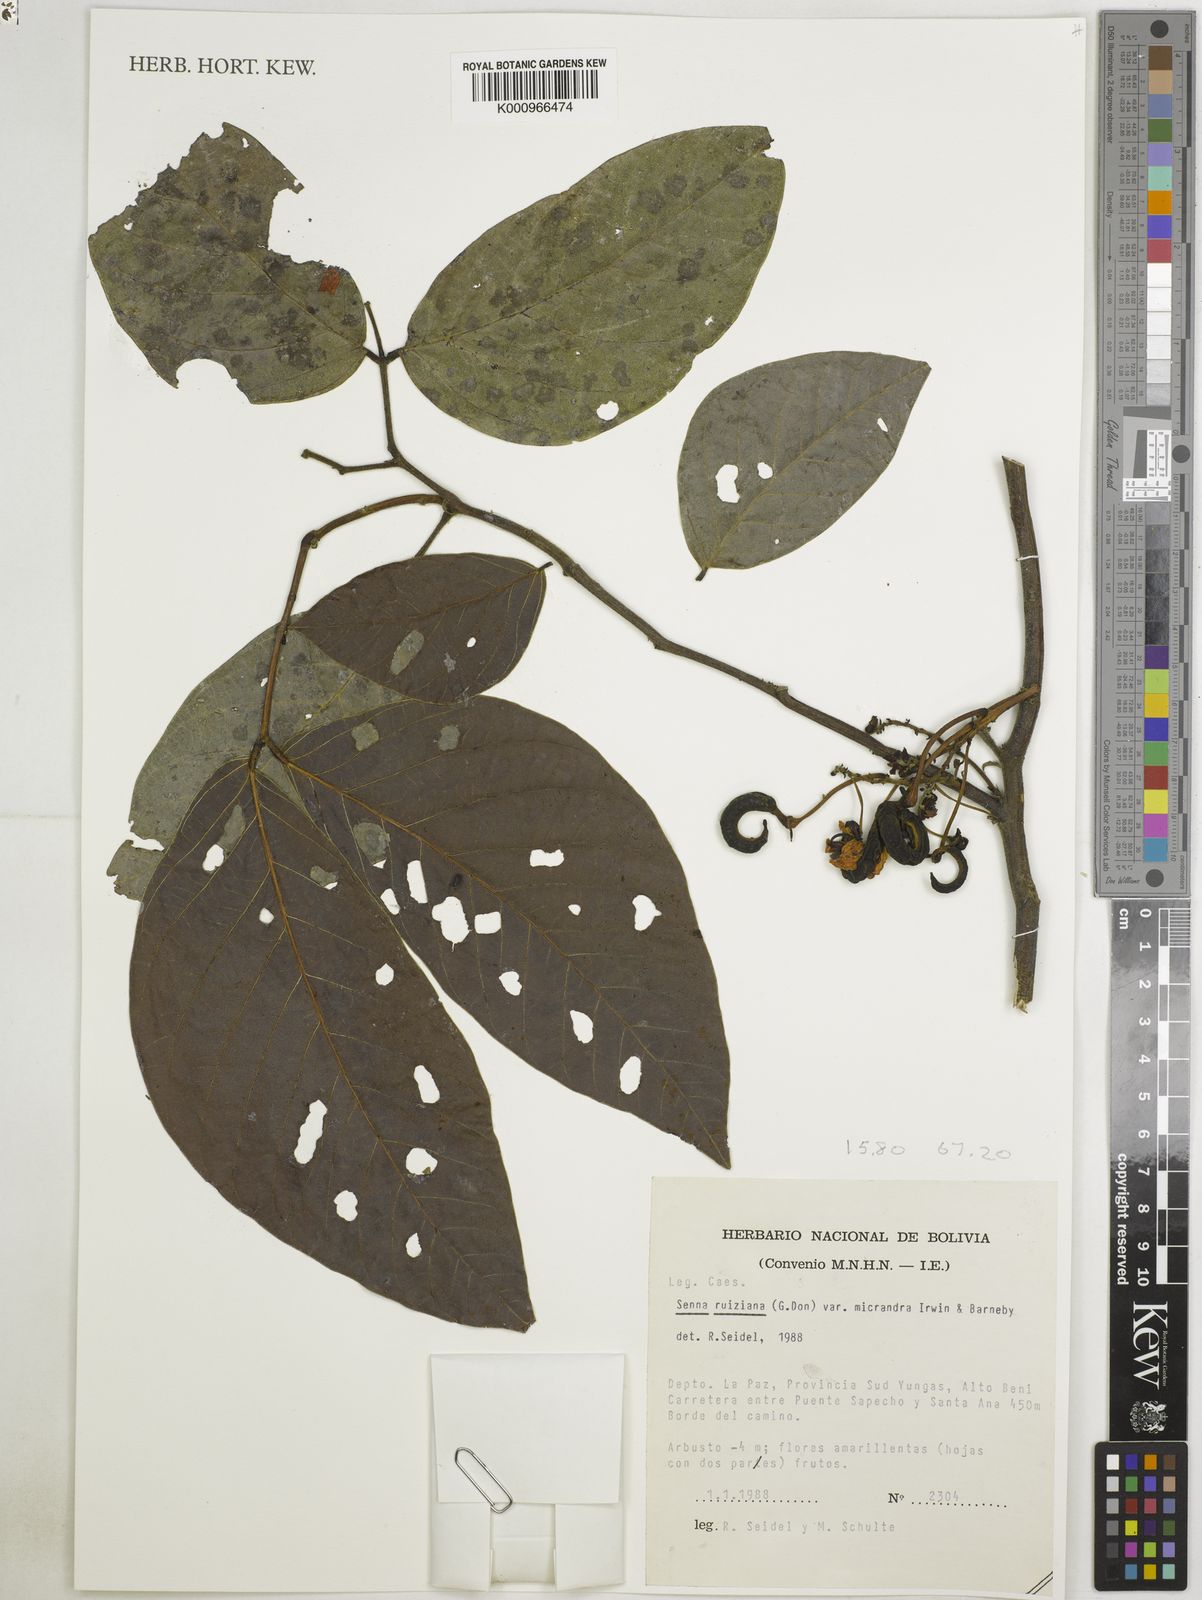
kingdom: Plantae
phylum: Tracheophyta
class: Magnoliopsida
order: Fabales
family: Fabaceae
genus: Senna
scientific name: Senna ruiziana
